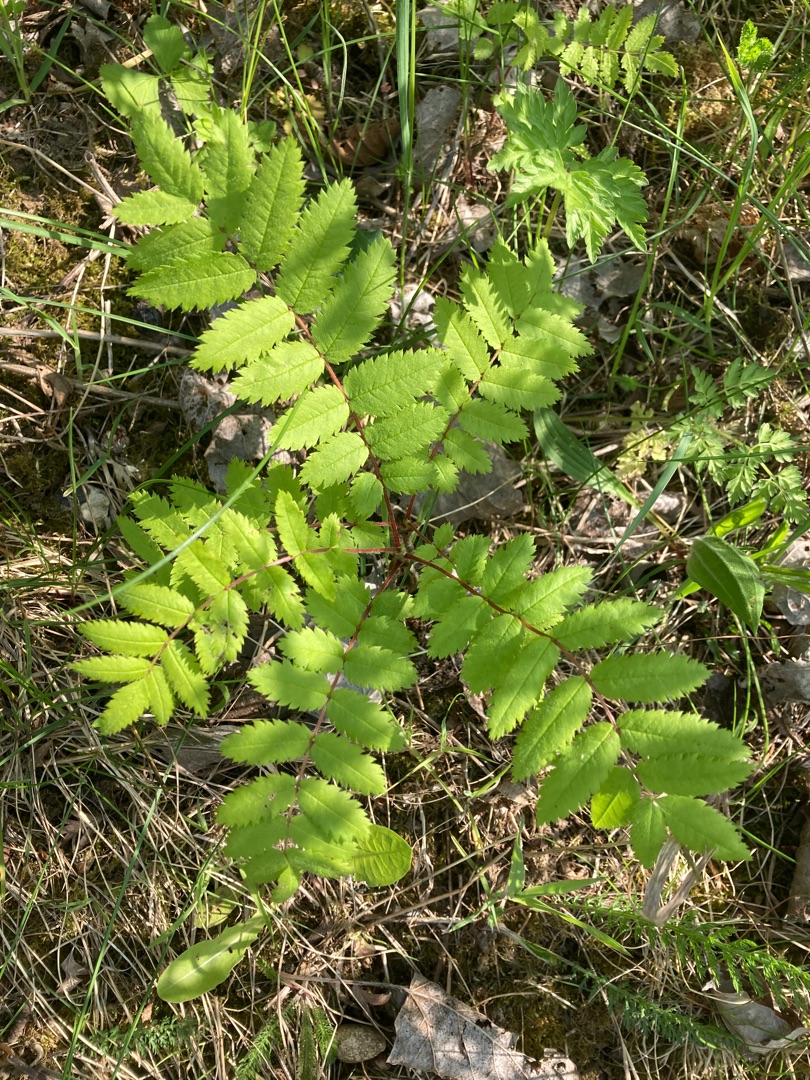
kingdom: Plantae
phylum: Tracheophyta
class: Magnoliopsida
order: Rosales
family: Rosaceae
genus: Sorbus
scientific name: Sorbus aucuparia
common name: Almindelig røn
